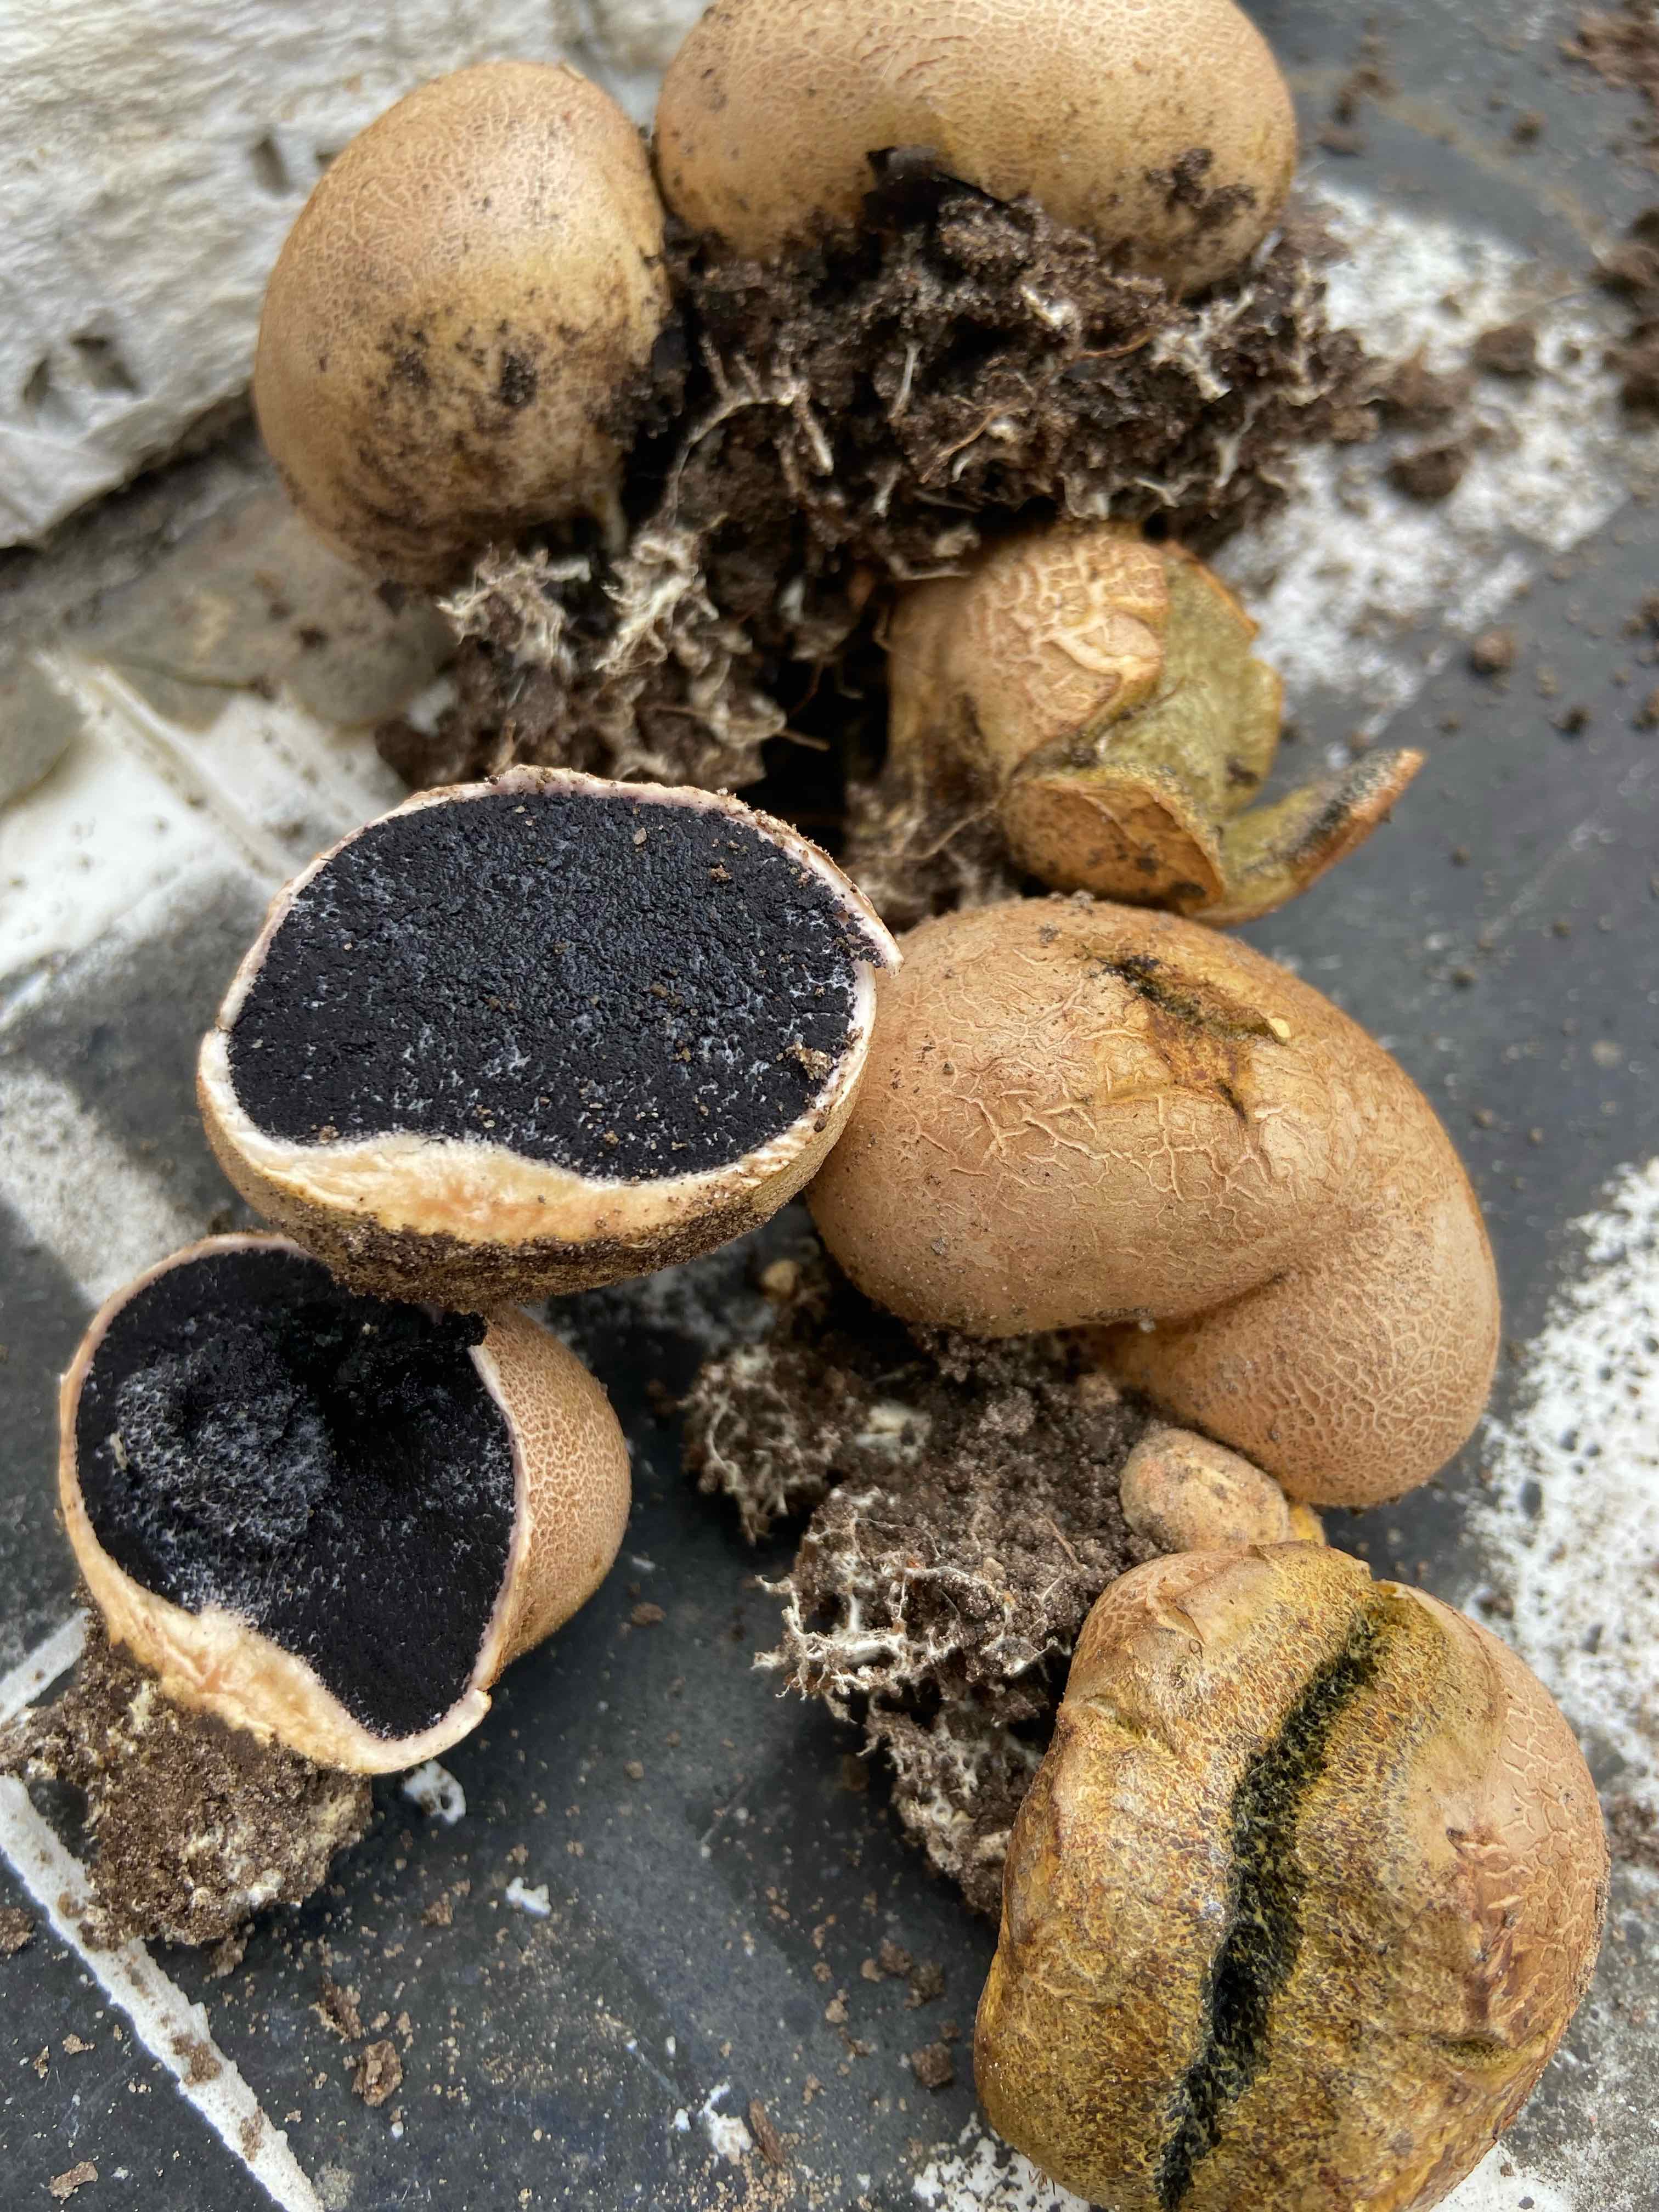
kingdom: Fungi
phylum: Basidiomycota
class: Agaricomycetes
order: Boletales
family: Sclerodermataceae
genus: Scleroderma
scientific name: Scleroderma
